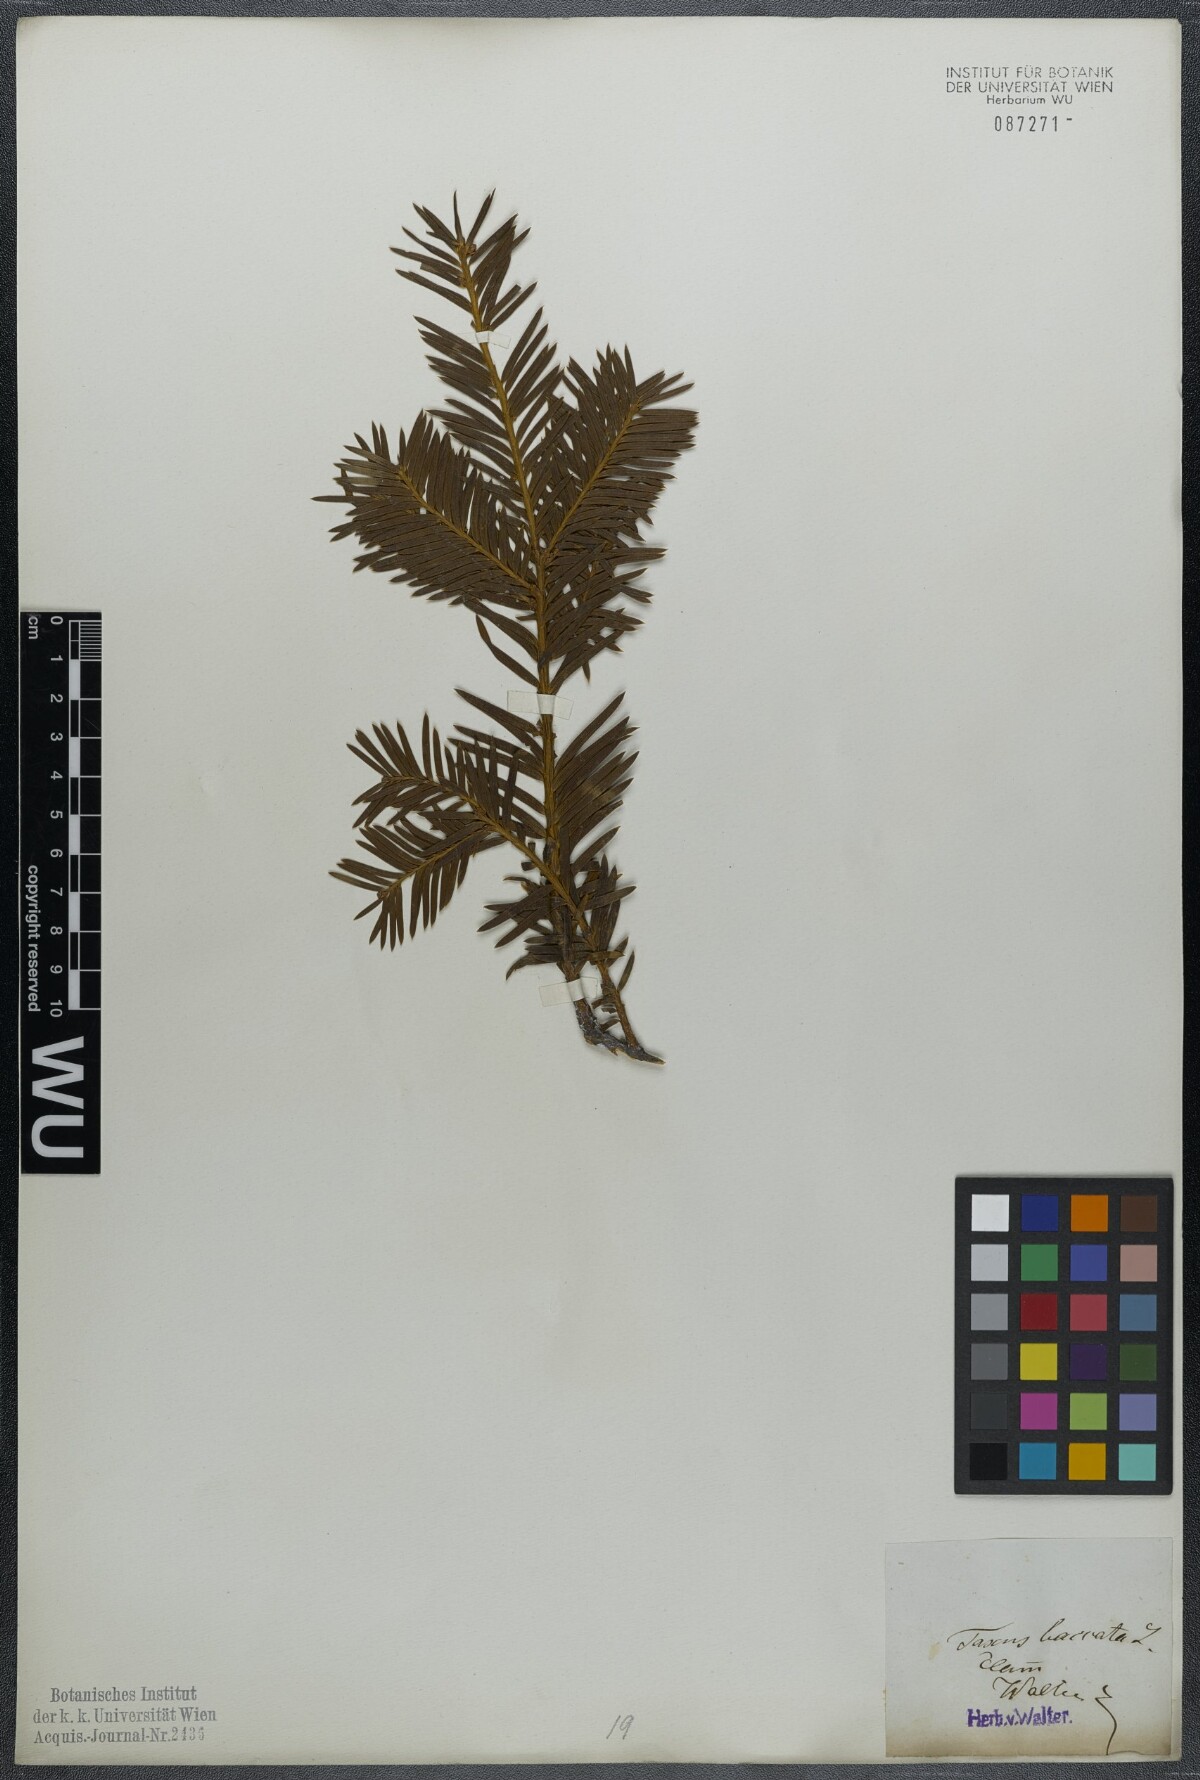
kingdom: Plantae
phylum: Tracheophyta
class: Pinopsida
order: Pinales
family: Taxaceae
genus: Taxus
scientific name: Taxus baccata
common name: Yew
